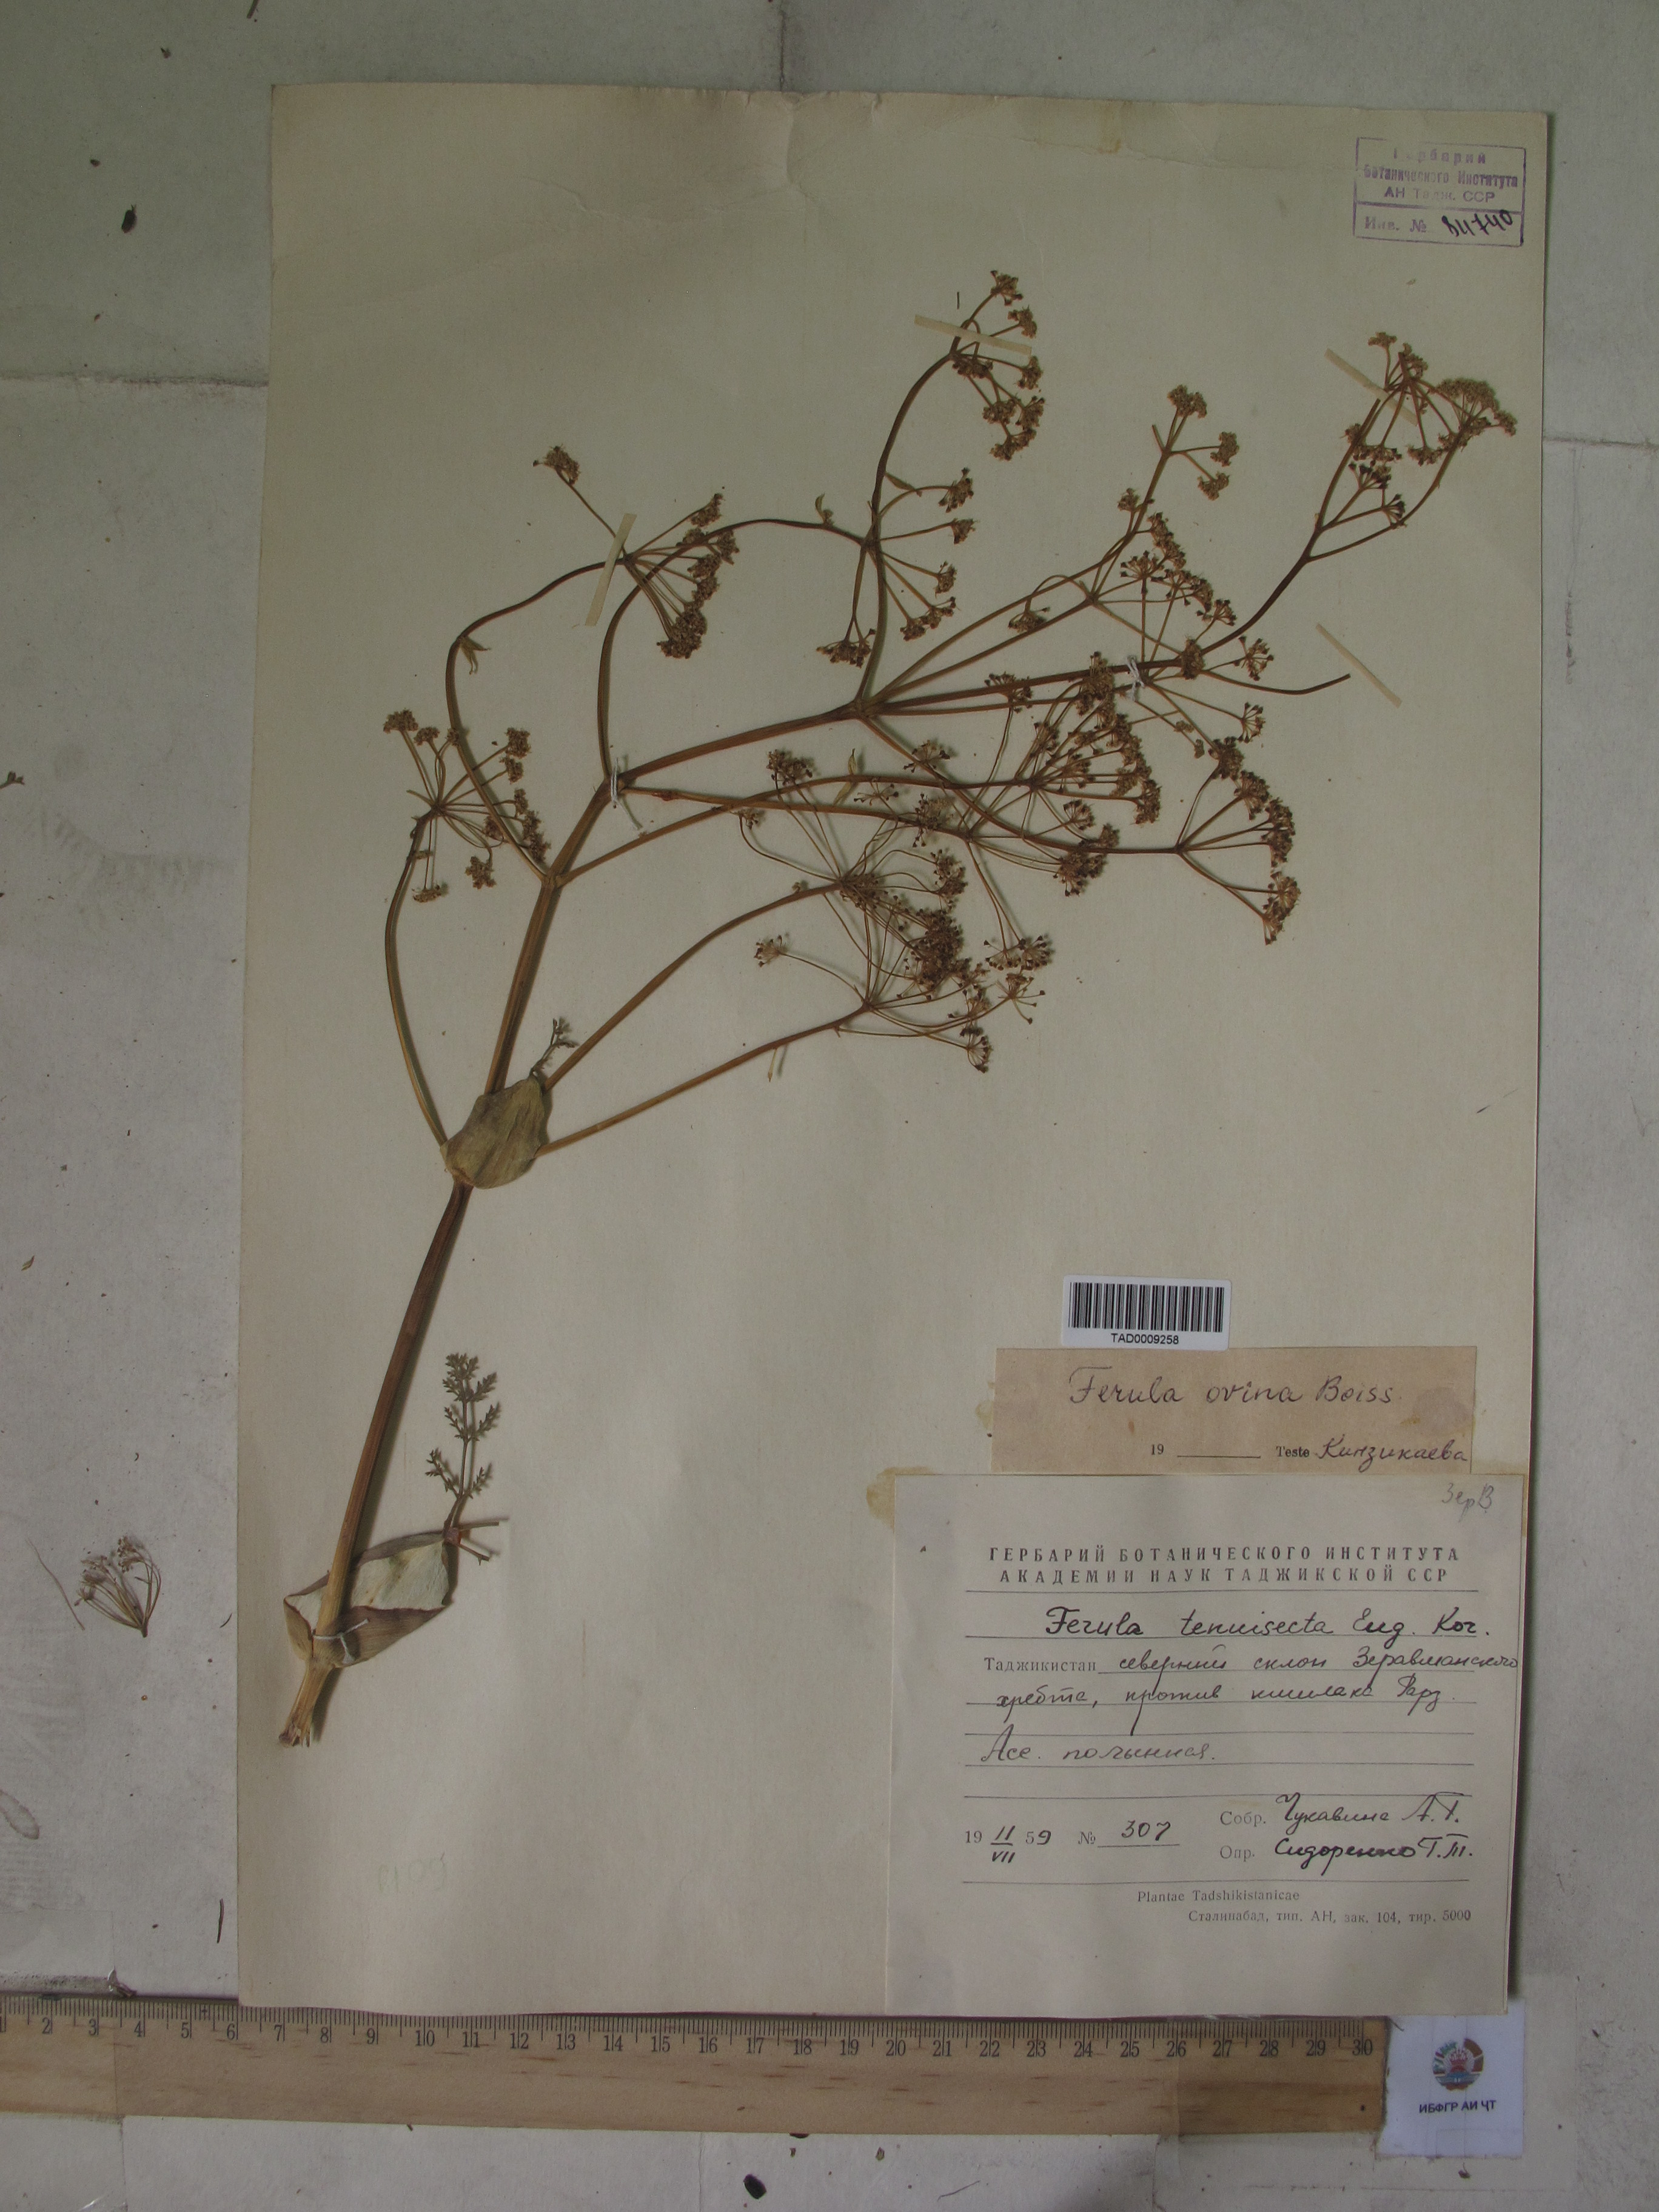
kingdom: Plantae
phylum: Tracheophyta
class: Magnoliopsida
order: Apiales
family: Apiaceae
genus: Ferula
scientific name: Ferula ovina
